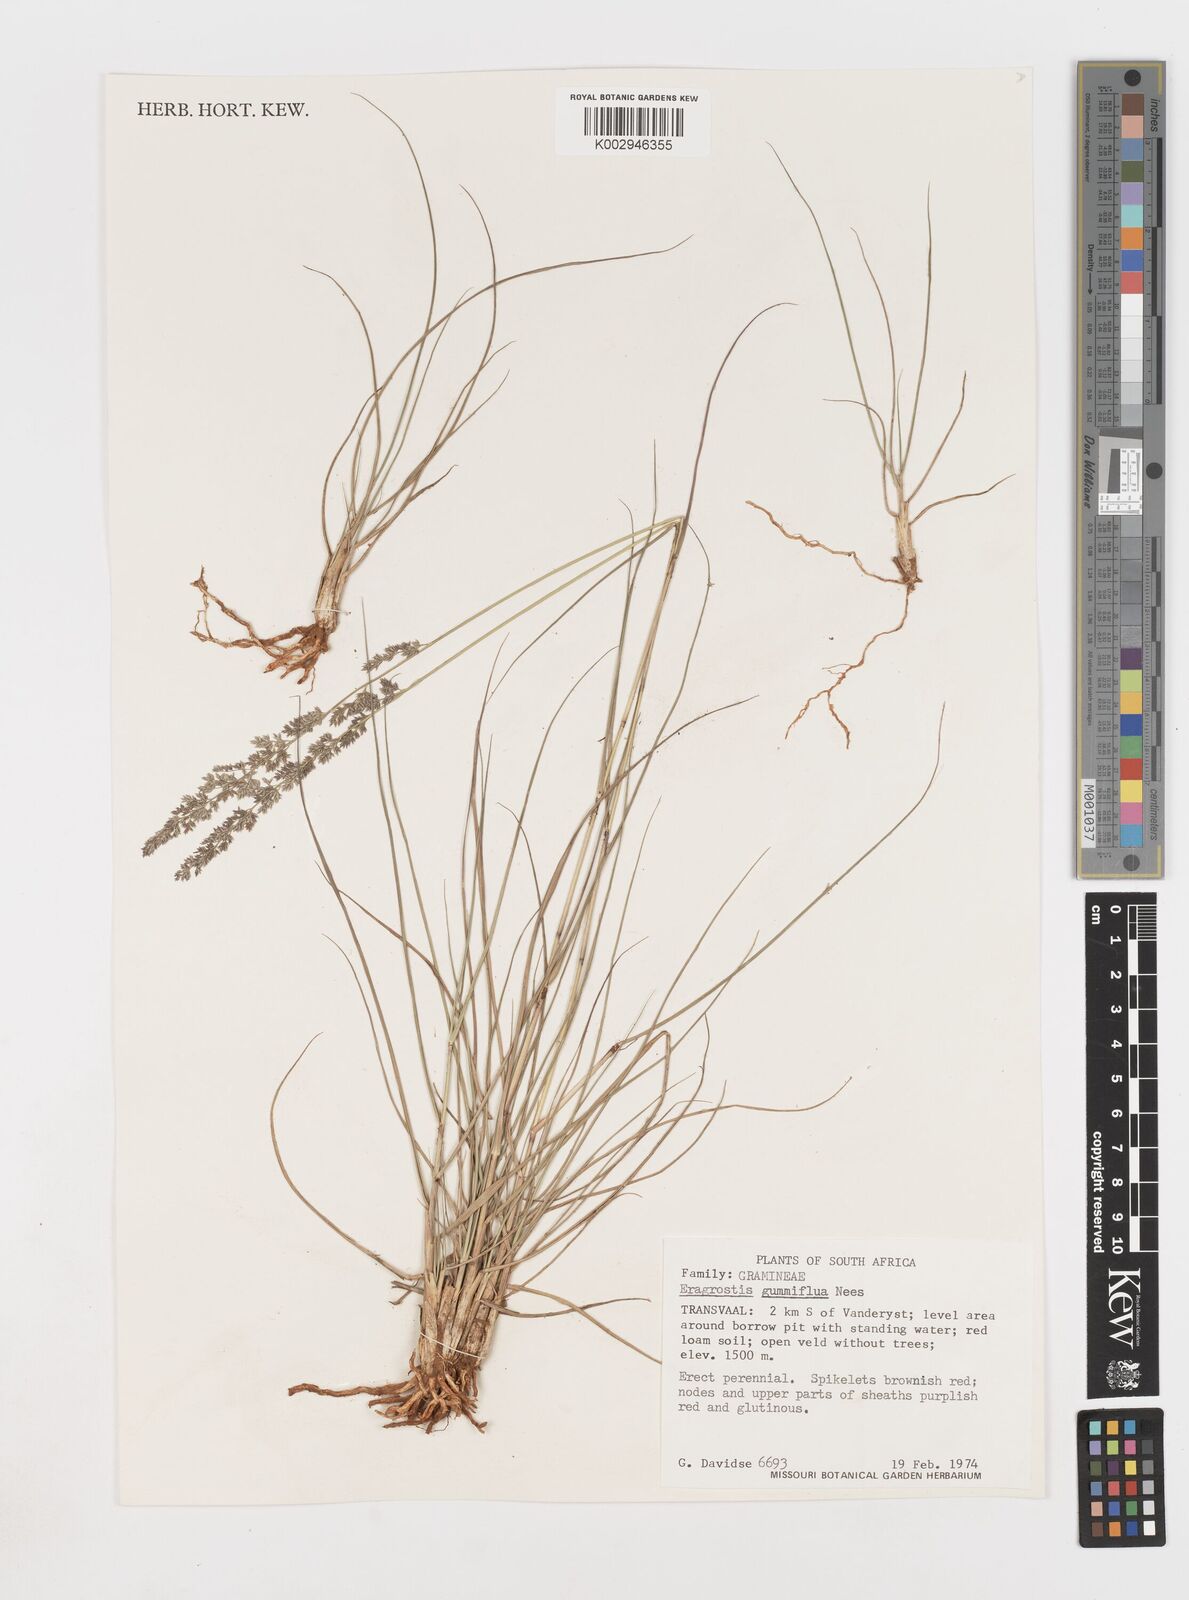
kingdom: Plantae
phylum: Tracheophyta
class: Liliopsida
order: Poales
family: Poaceae
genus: Eragrostis
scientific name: Eragrostis gummiflua
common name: Gum grass
